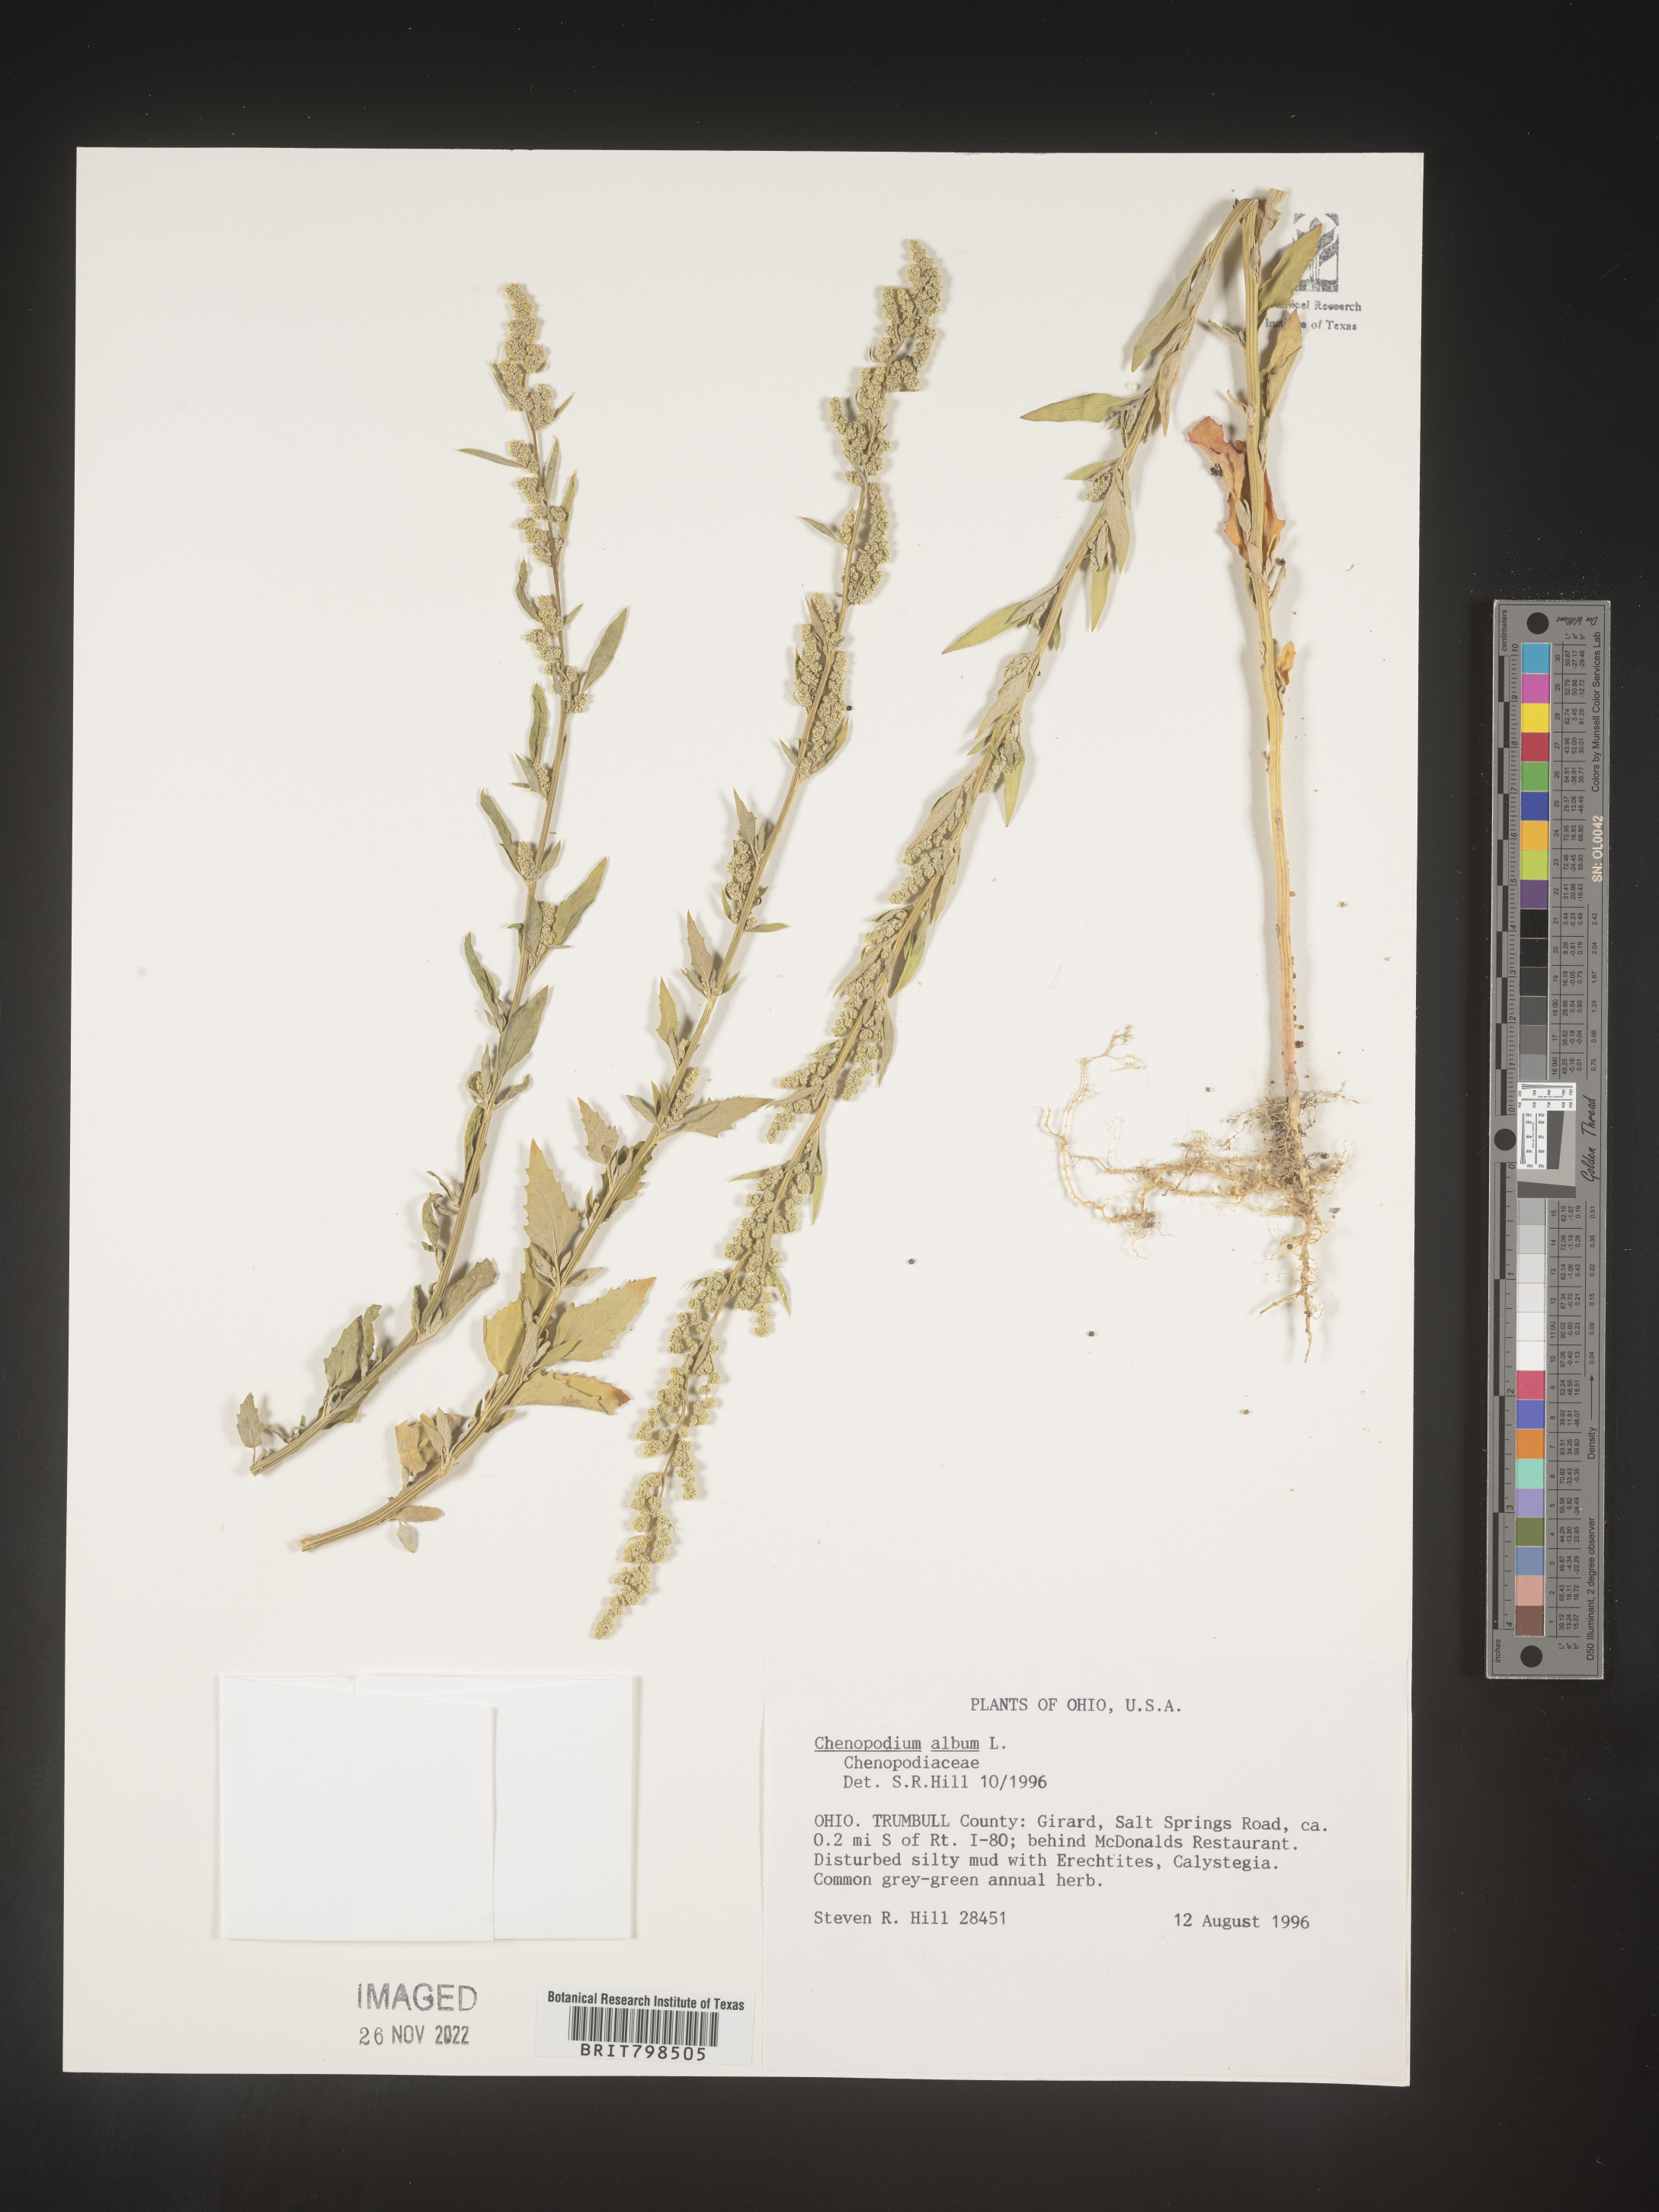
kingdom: Plantae
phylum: Tracheophyta
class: Magnoliopsida
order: Caryophyllales
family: Amaranthaceae
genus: Chenopodium
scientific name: Chenopodium album
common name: Fat-hen
